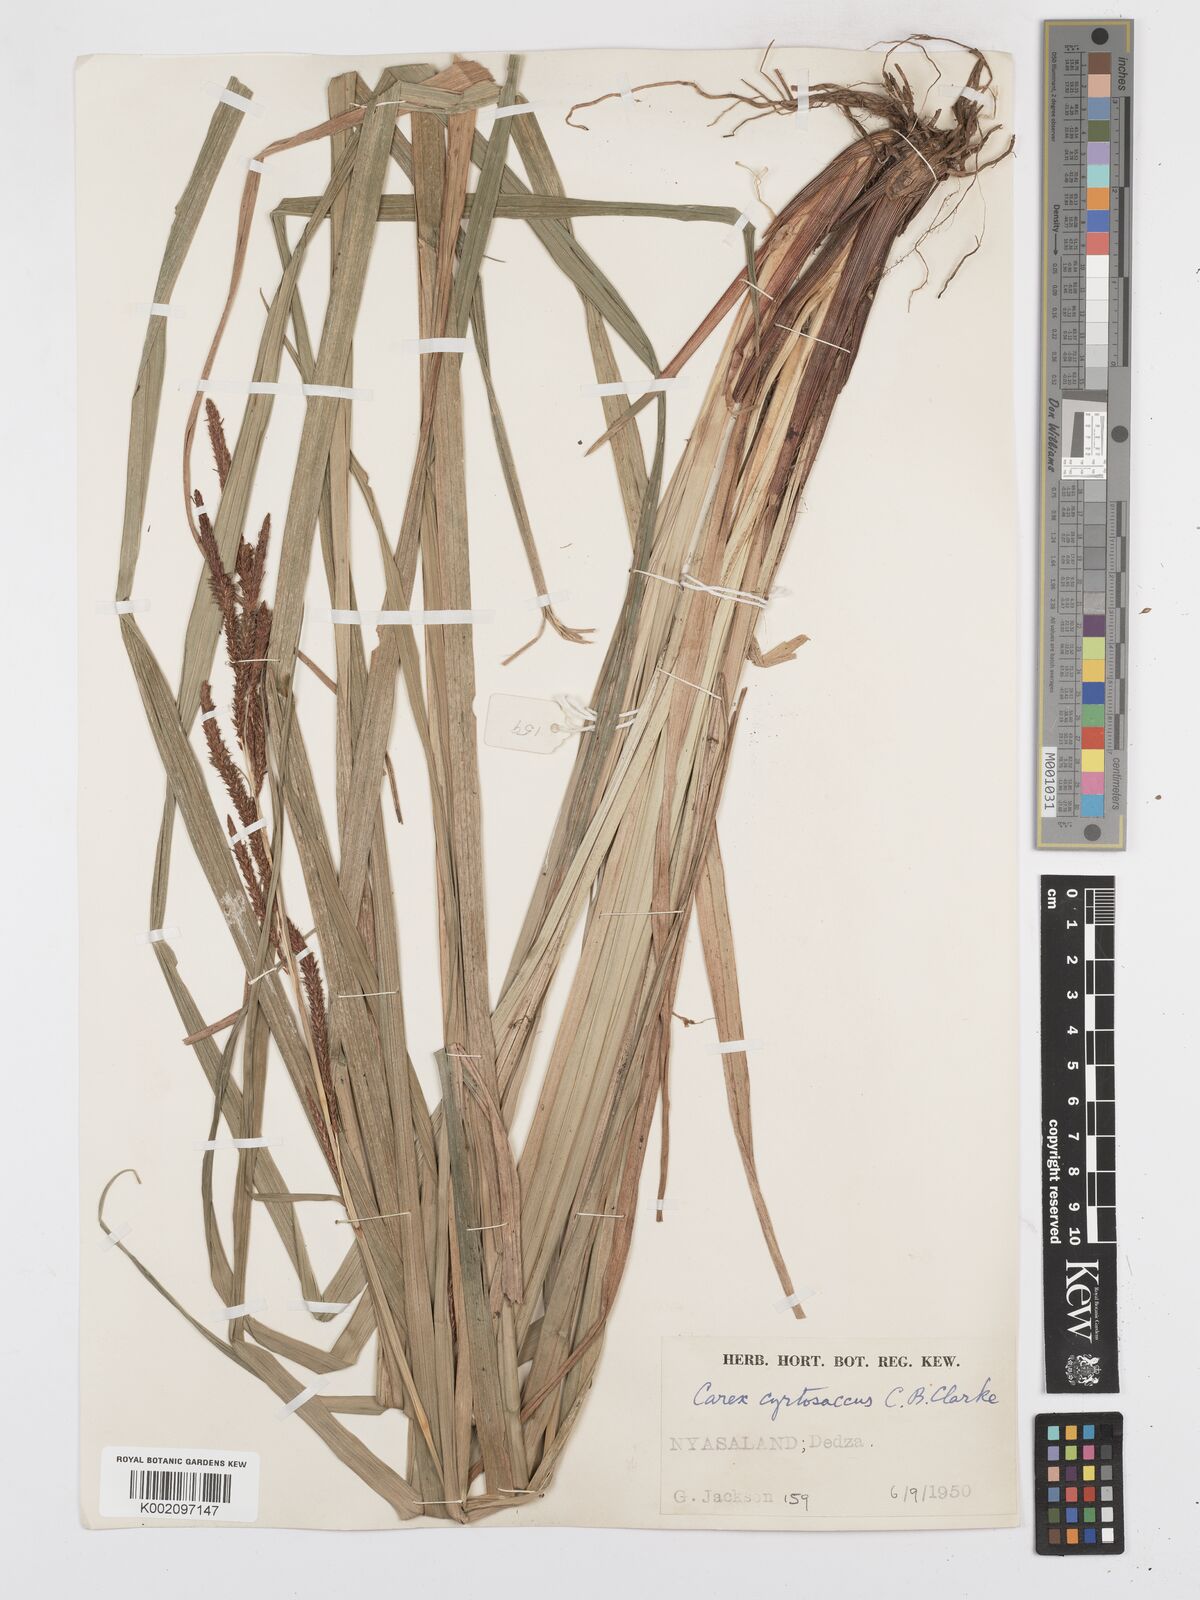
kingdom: Plantae
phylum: Tracheophyta
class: Liliopsida
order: Poales
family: Cyperaceae
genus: Carex
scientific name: Carex vallis-rosetto
